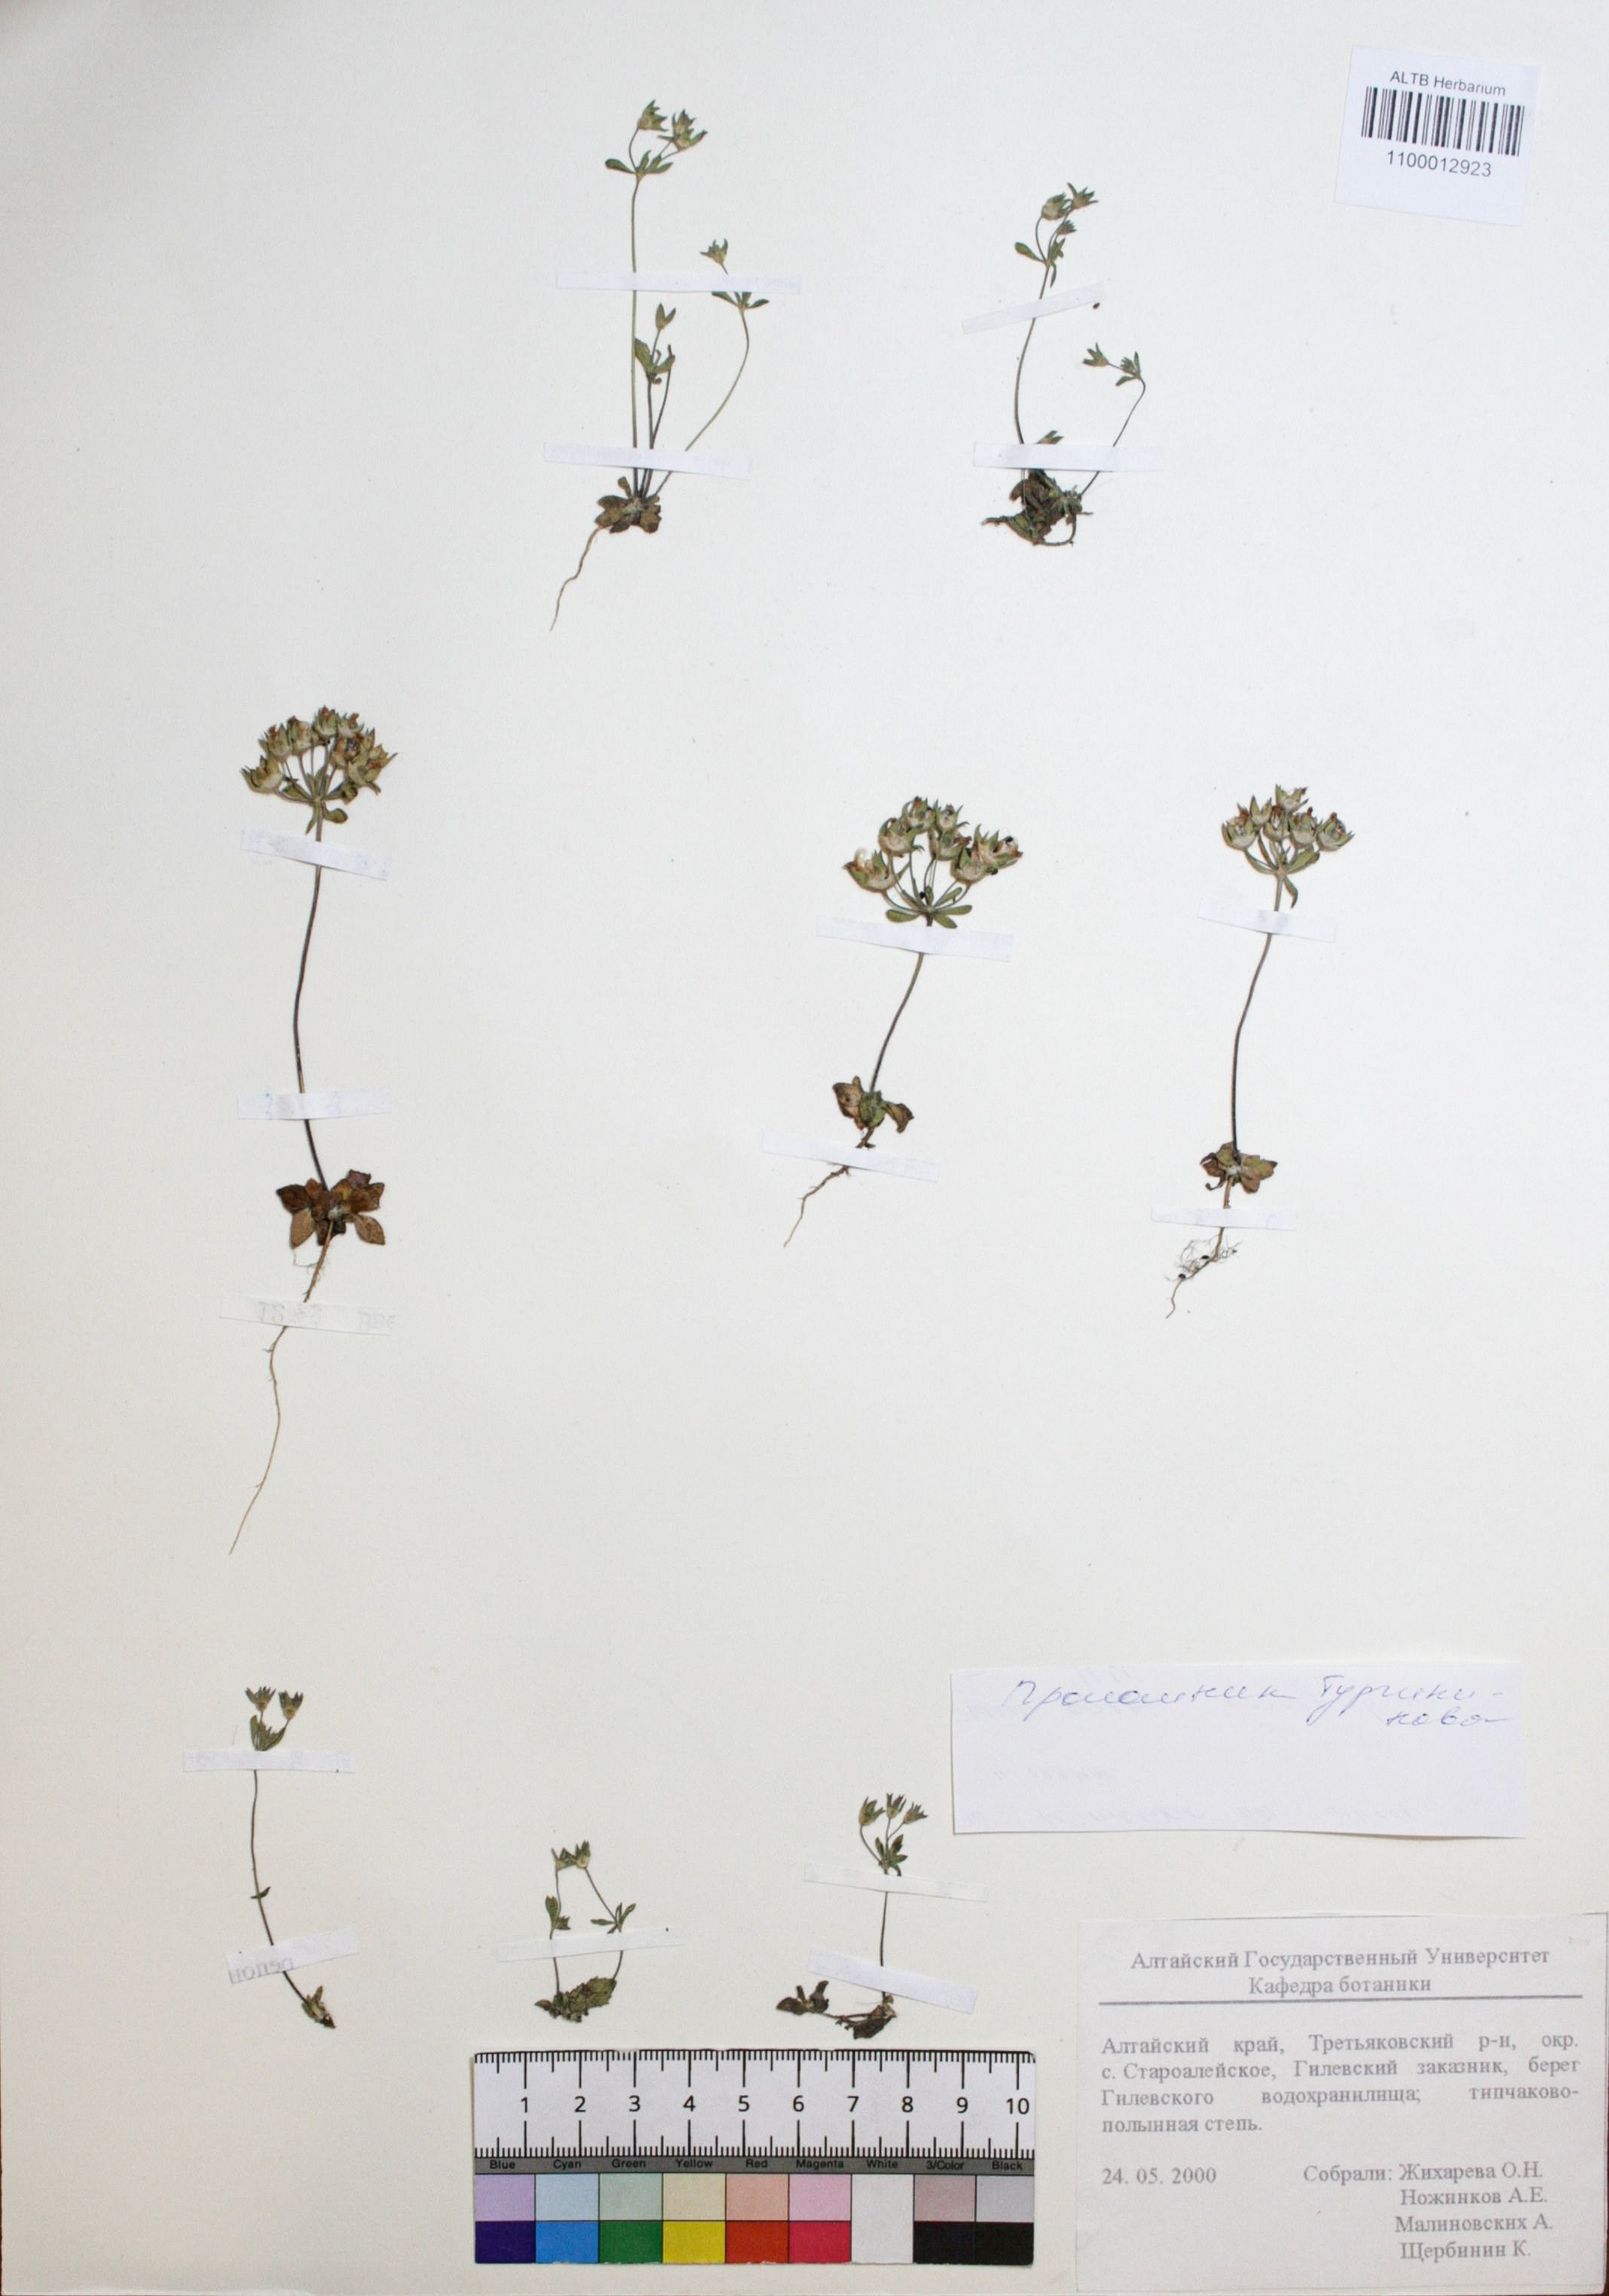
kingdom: Plantae
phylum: Tracheophyta
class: Magnoliopsida
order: Ericales
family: Primulaceae
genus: Androsace
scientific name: Androsace maxima
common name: Annual androsace
